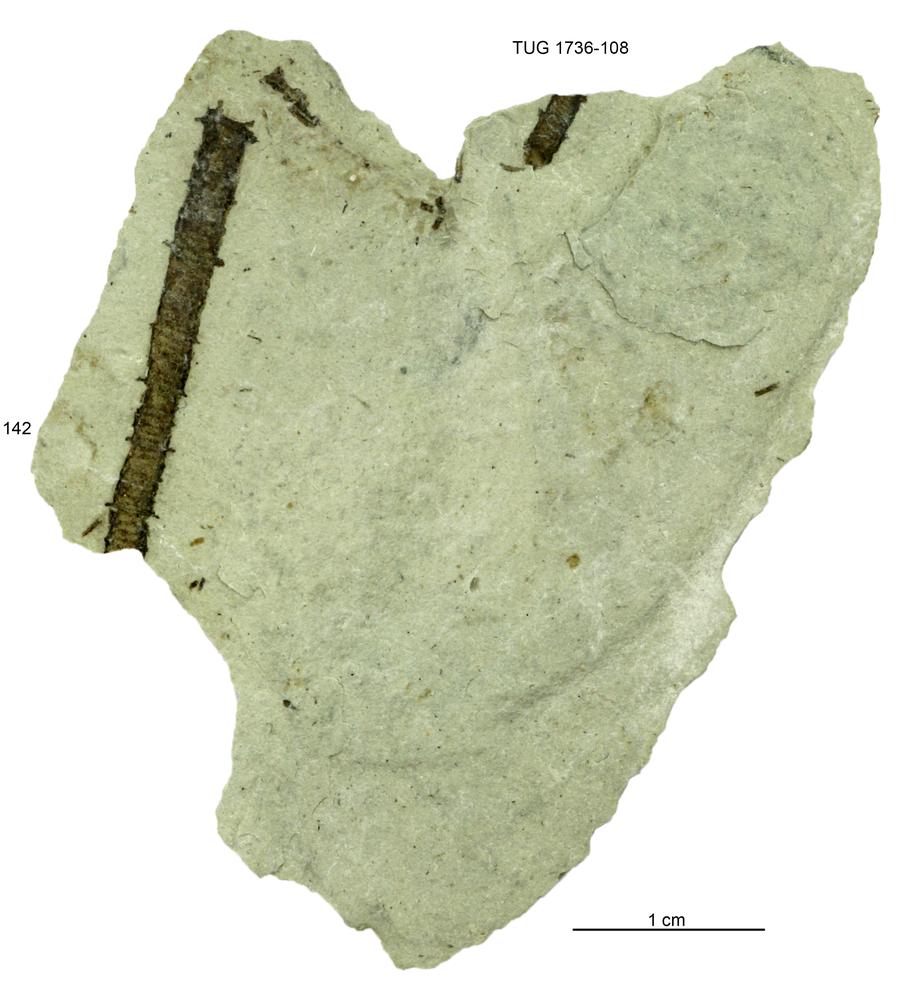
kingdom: Animalia
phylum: Echinodermata
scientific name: Echinodermata
